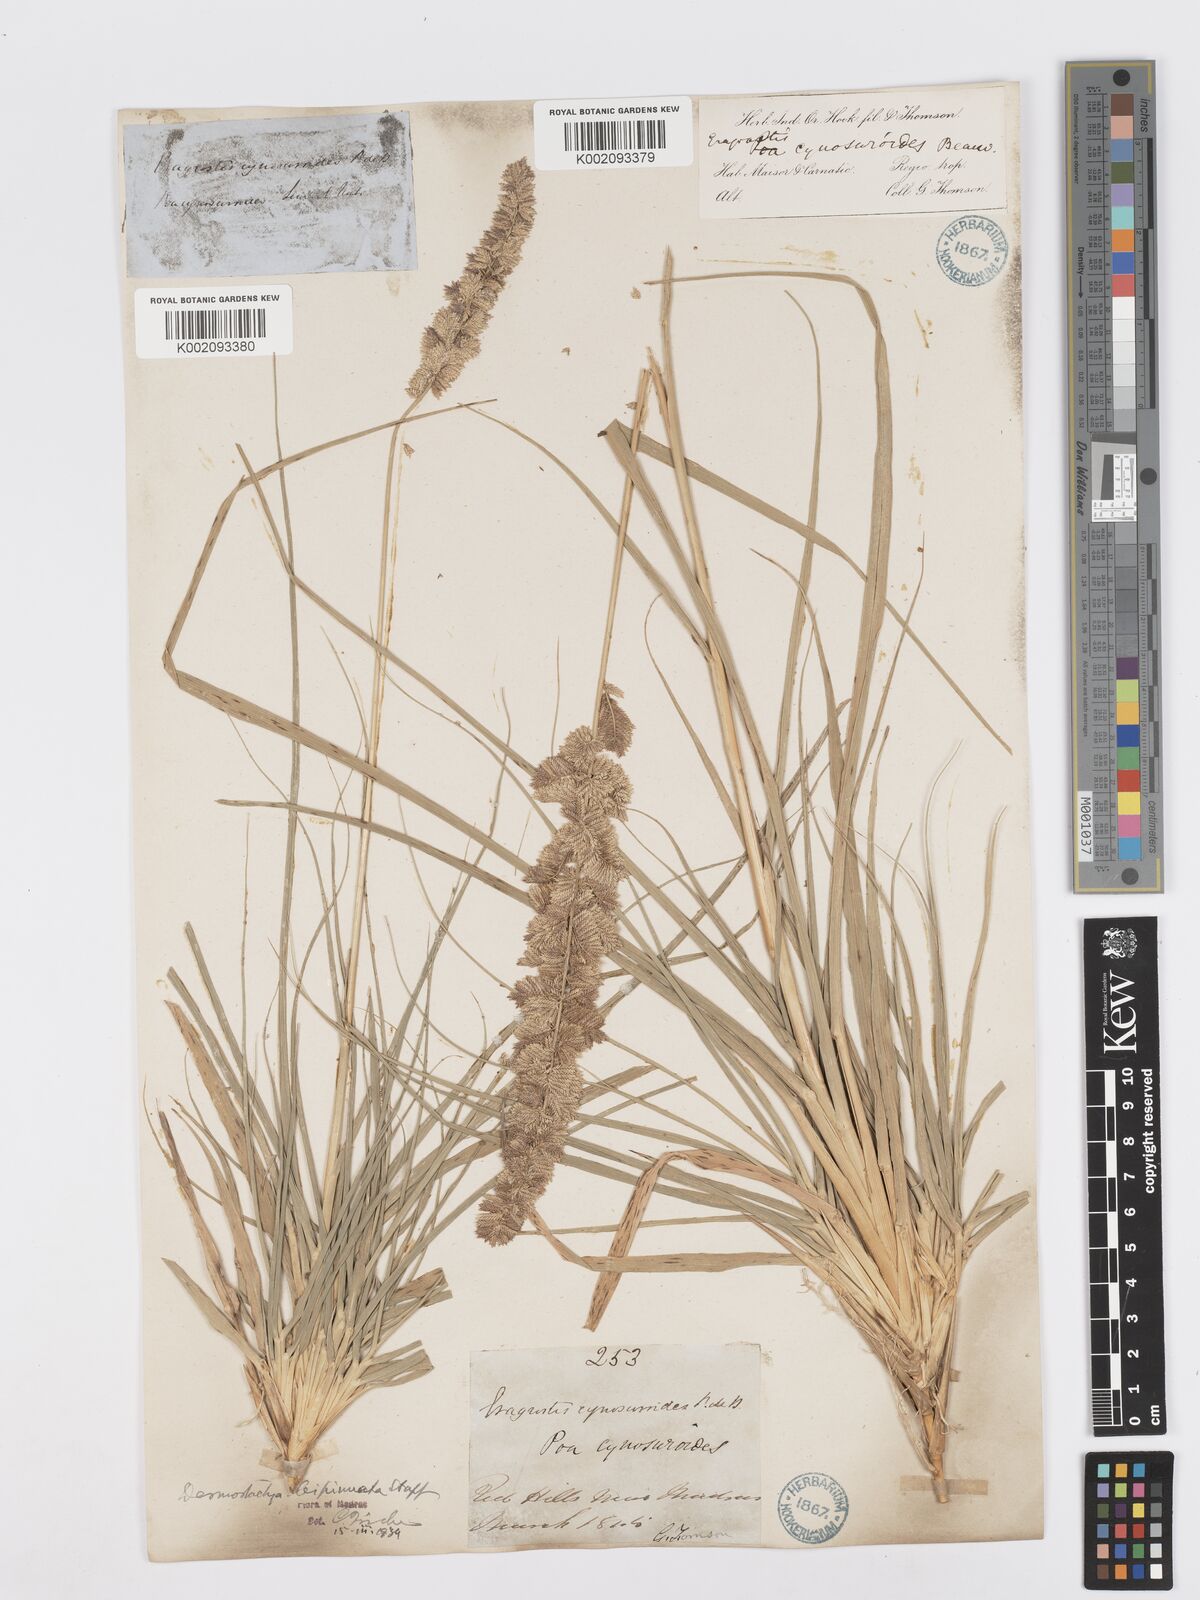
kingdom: Plantae
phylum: Tracheophyta
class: Liliopsida
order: Poales
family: Poaceae
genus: Desmostachya
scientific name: Desmostachya bipinnata
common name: Crowfoot grass
